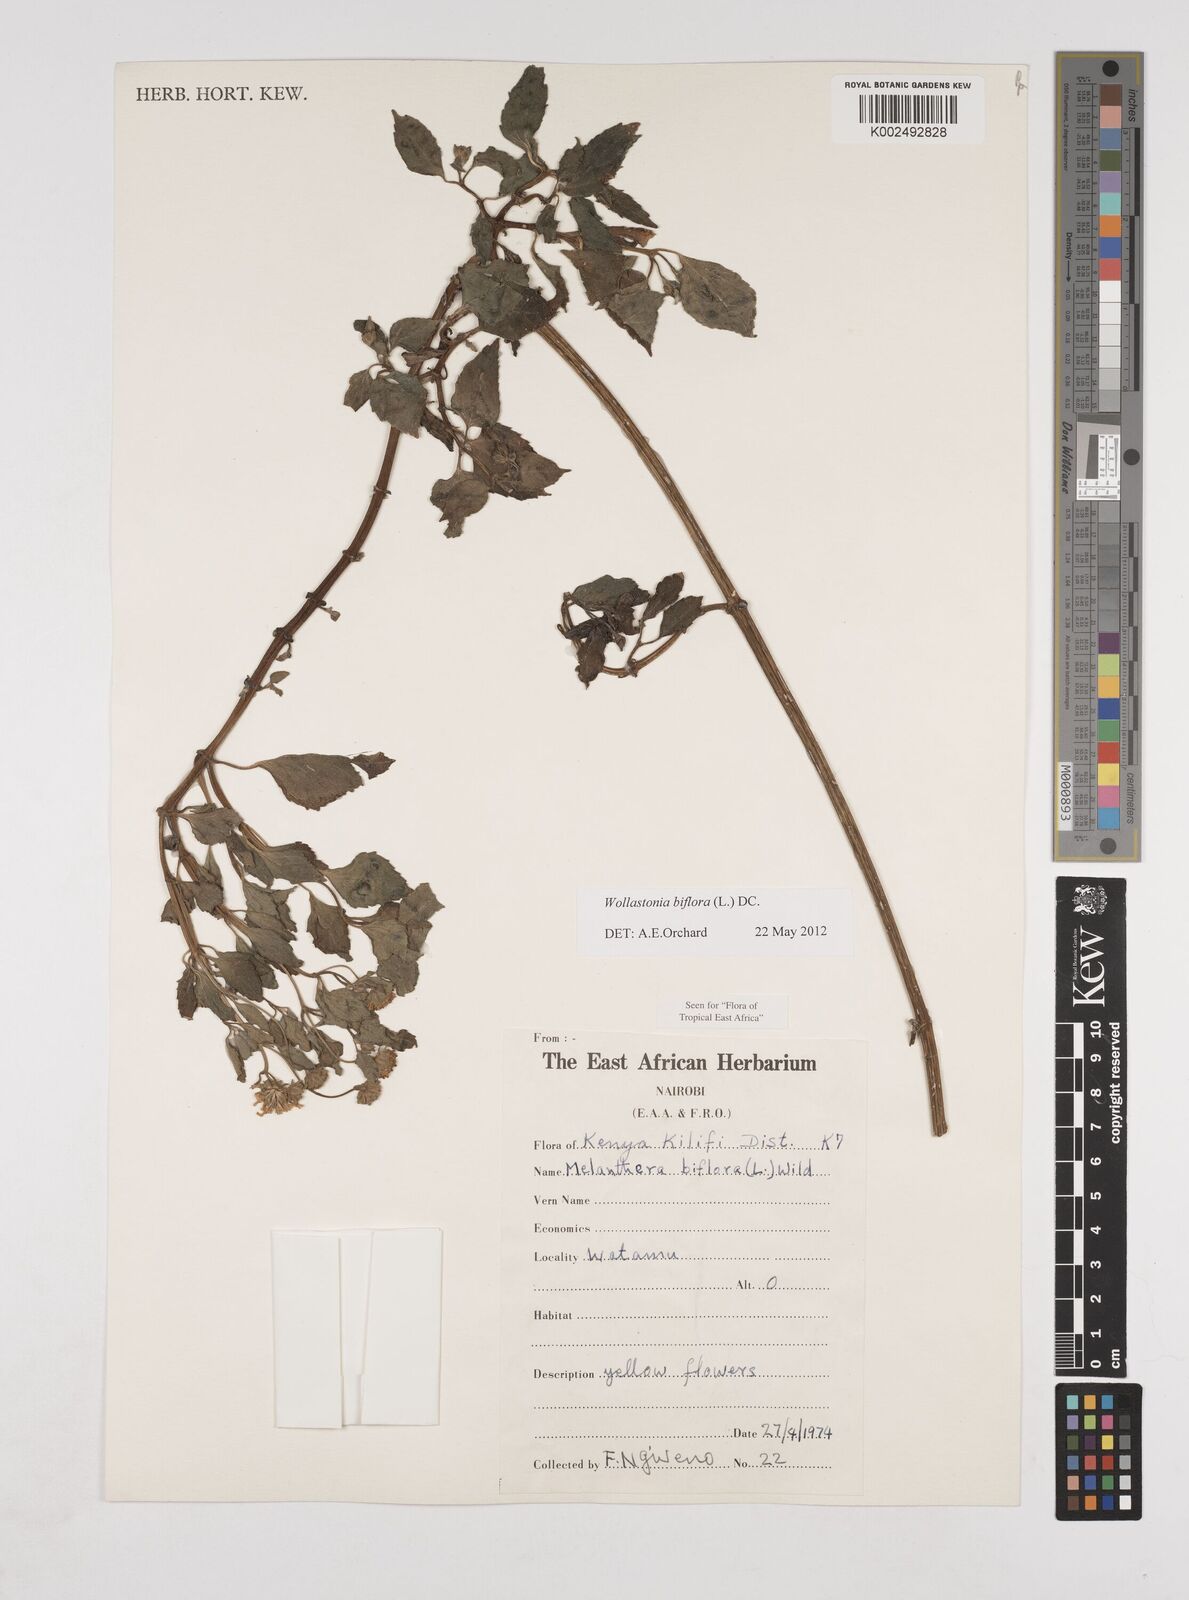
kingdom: Plantae
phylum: Tracheophyta
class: Magnoliopsida
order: Asterales
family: Asteraceae
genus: Wollastonia
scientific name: Wollastonia biflora
